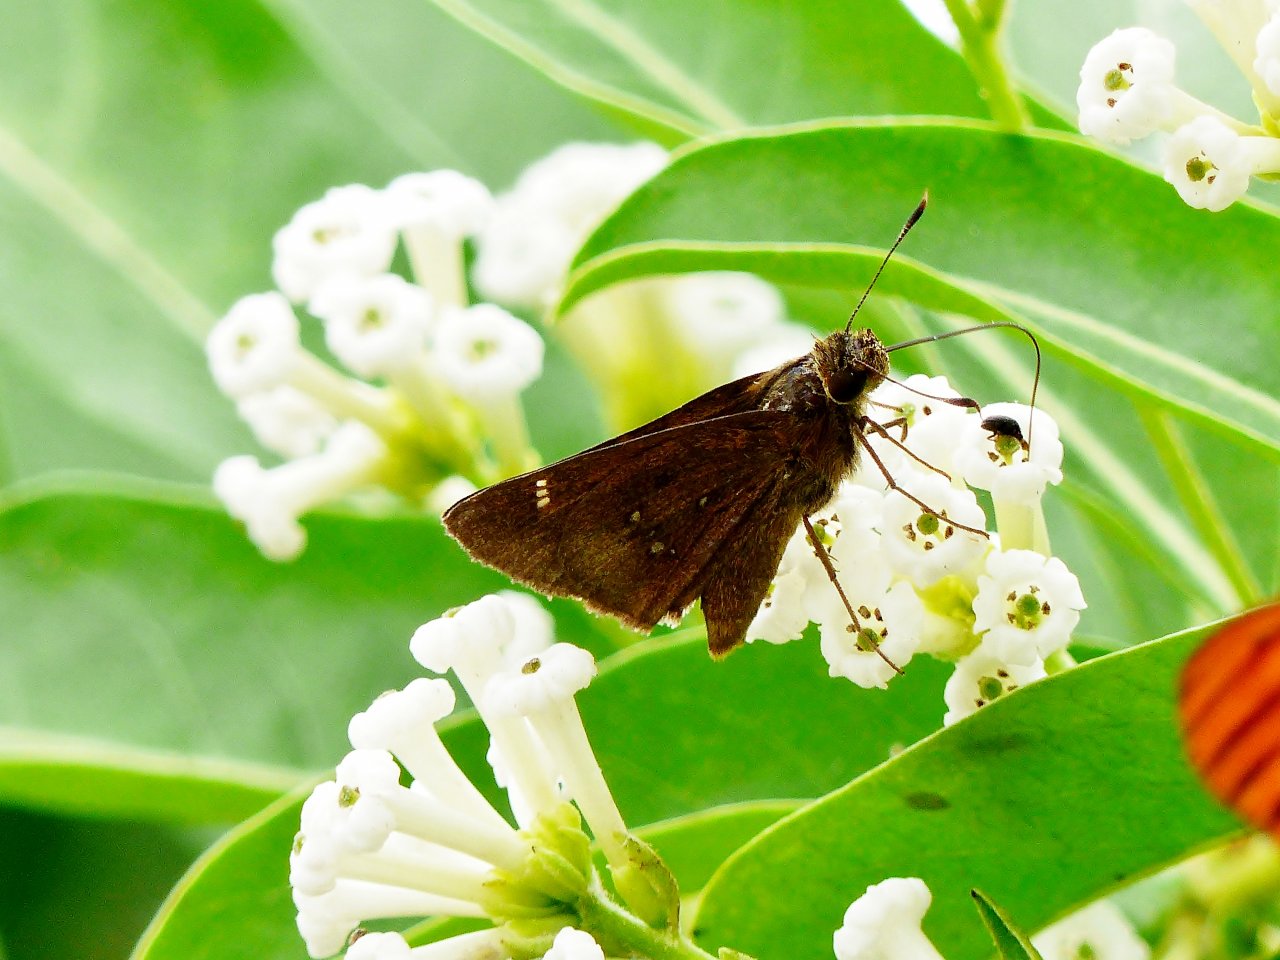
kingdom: Animalia
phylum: Arthropoda
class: Insecta
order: Lepidoptera
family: Hesperiidae
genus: Decinea
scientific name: Decinea percosius
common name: Double-dotted Skipper
